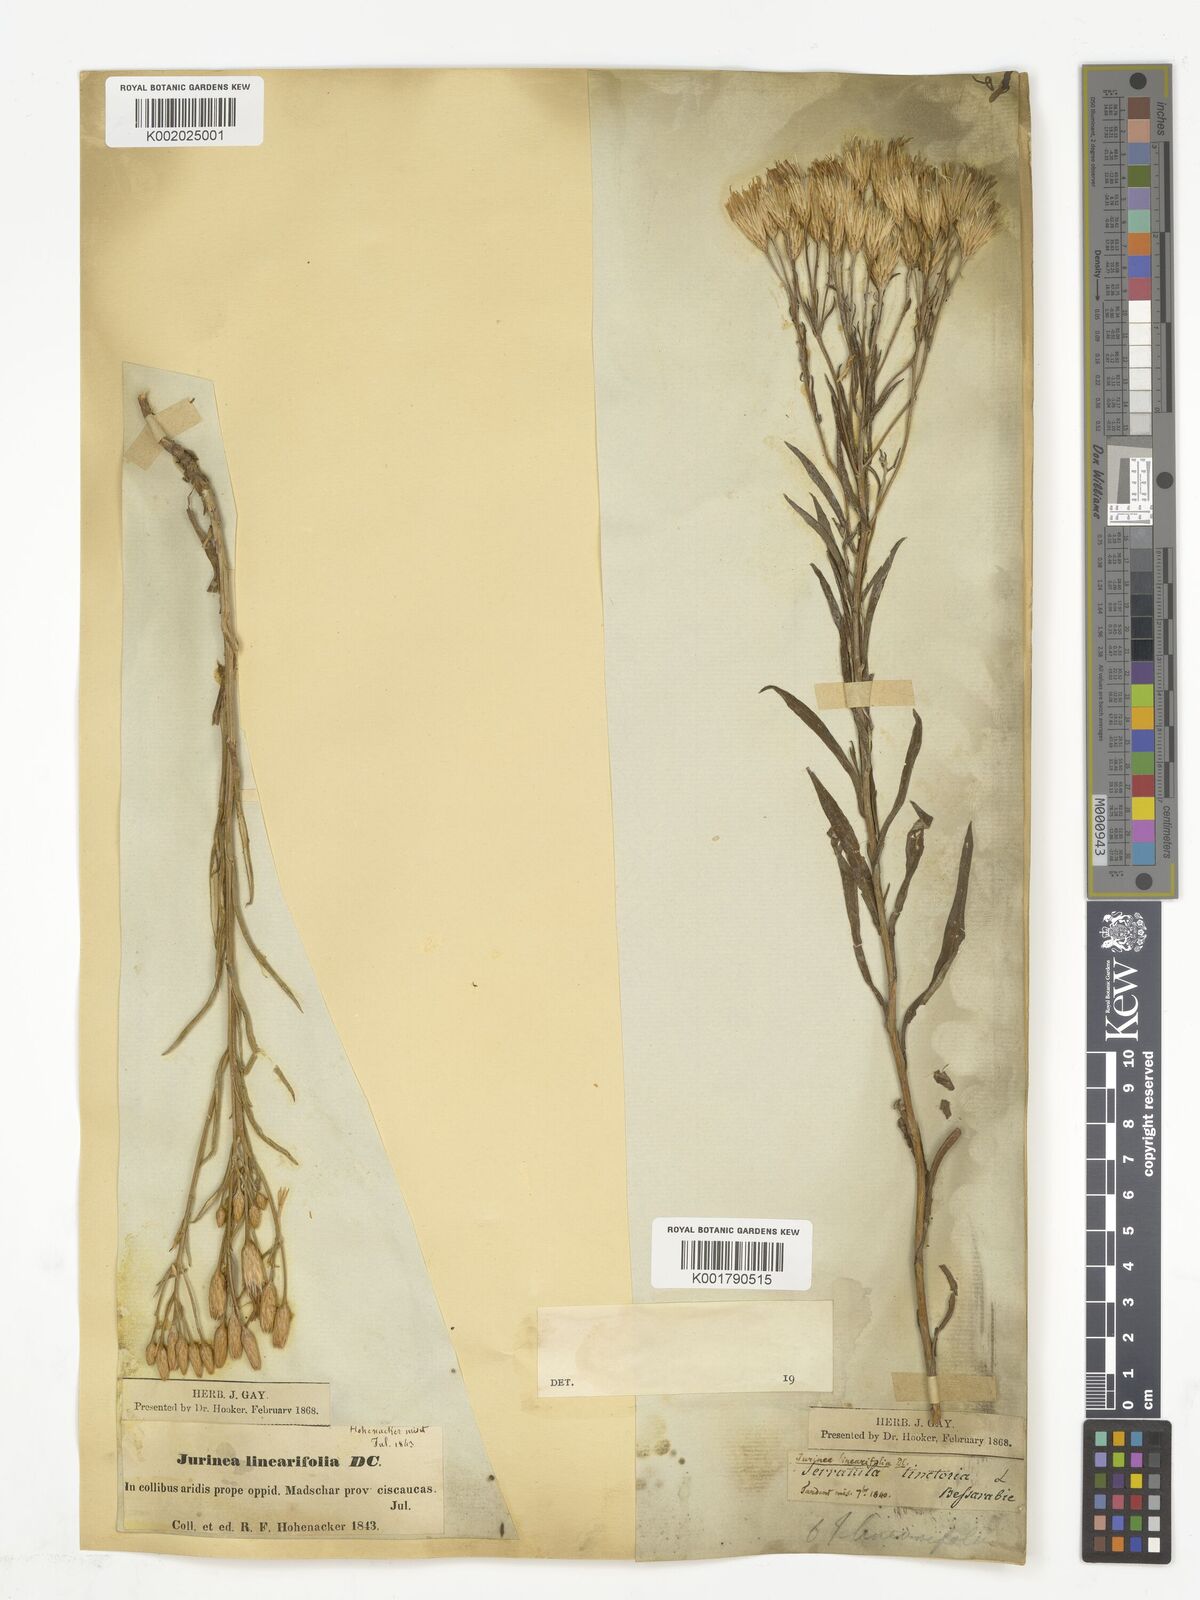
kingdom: Plantae
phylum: Tracheophyta
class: Magnoliopsida
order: Asterales
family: Asteraceae
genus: Jurinea
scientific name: Jurinea multiflora
